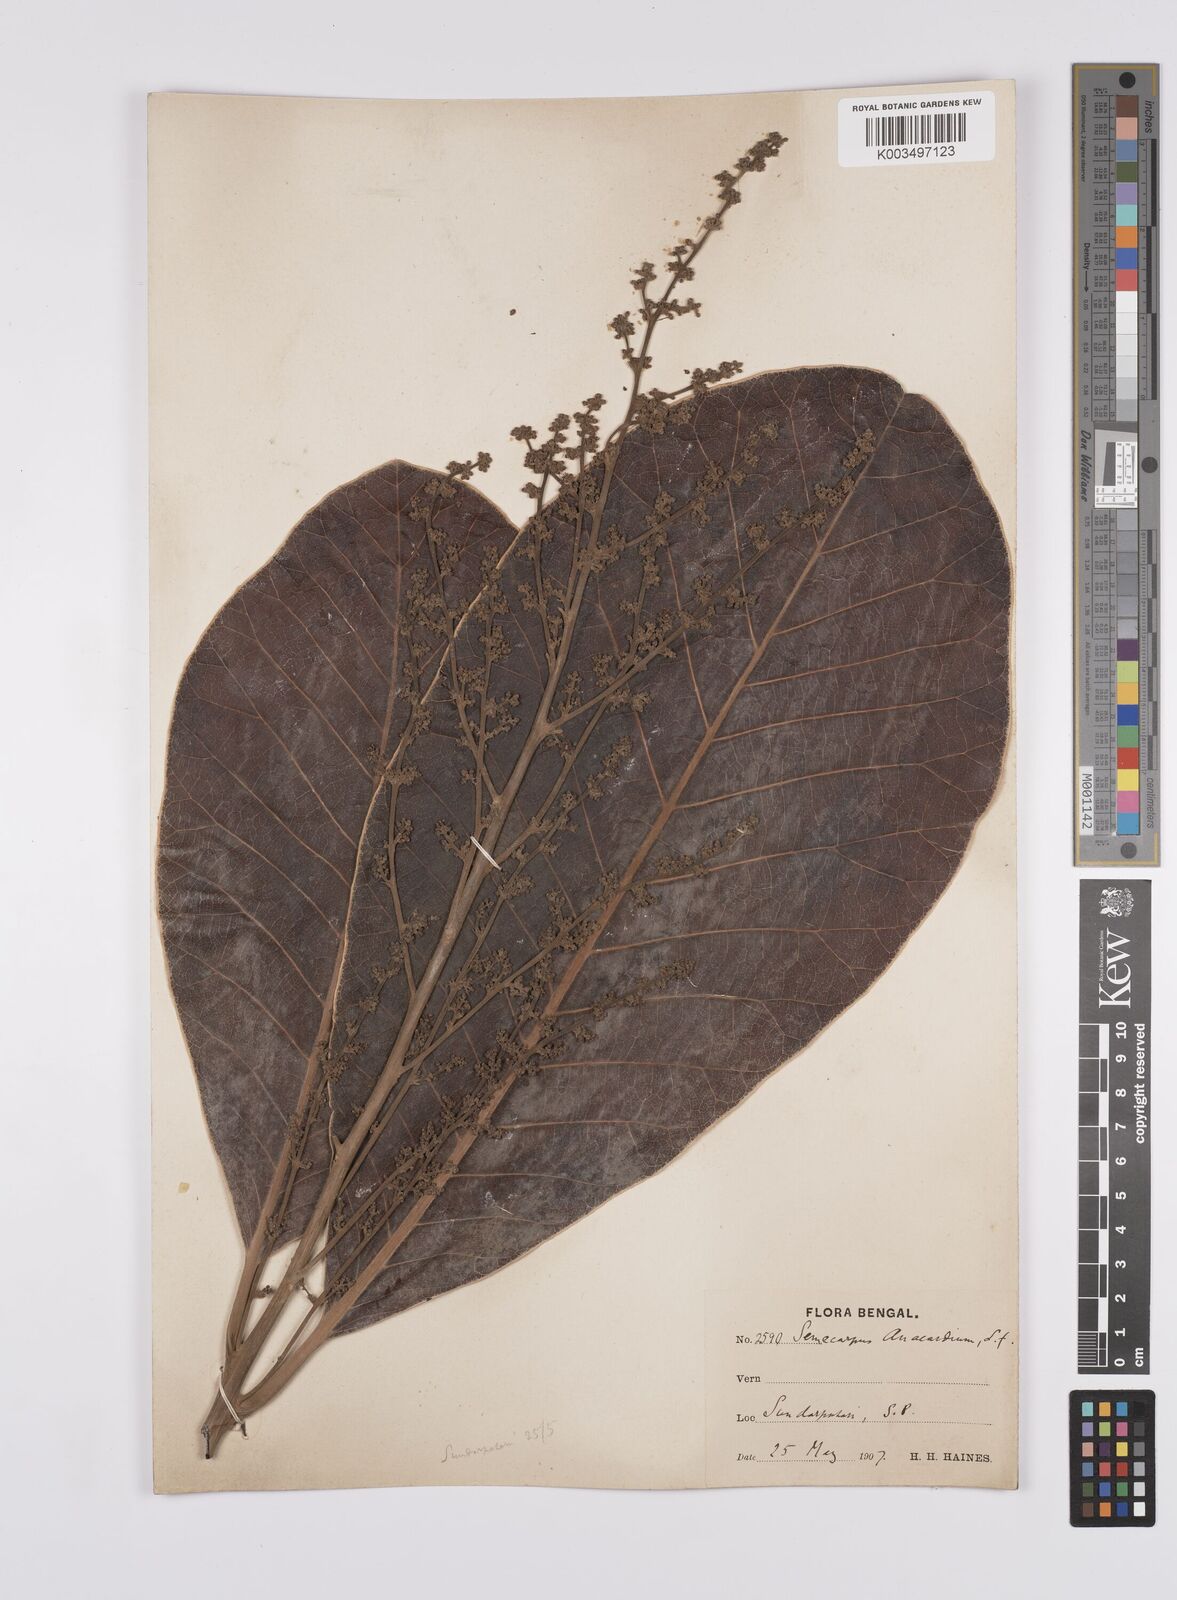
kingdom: Plantae
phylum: Tracheophyta
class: Magnoliopsida
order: Sapindales
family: Anacardiaceae
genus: Semecarpus
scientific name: Semecarpus anacardium
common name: Marking nut-tree
